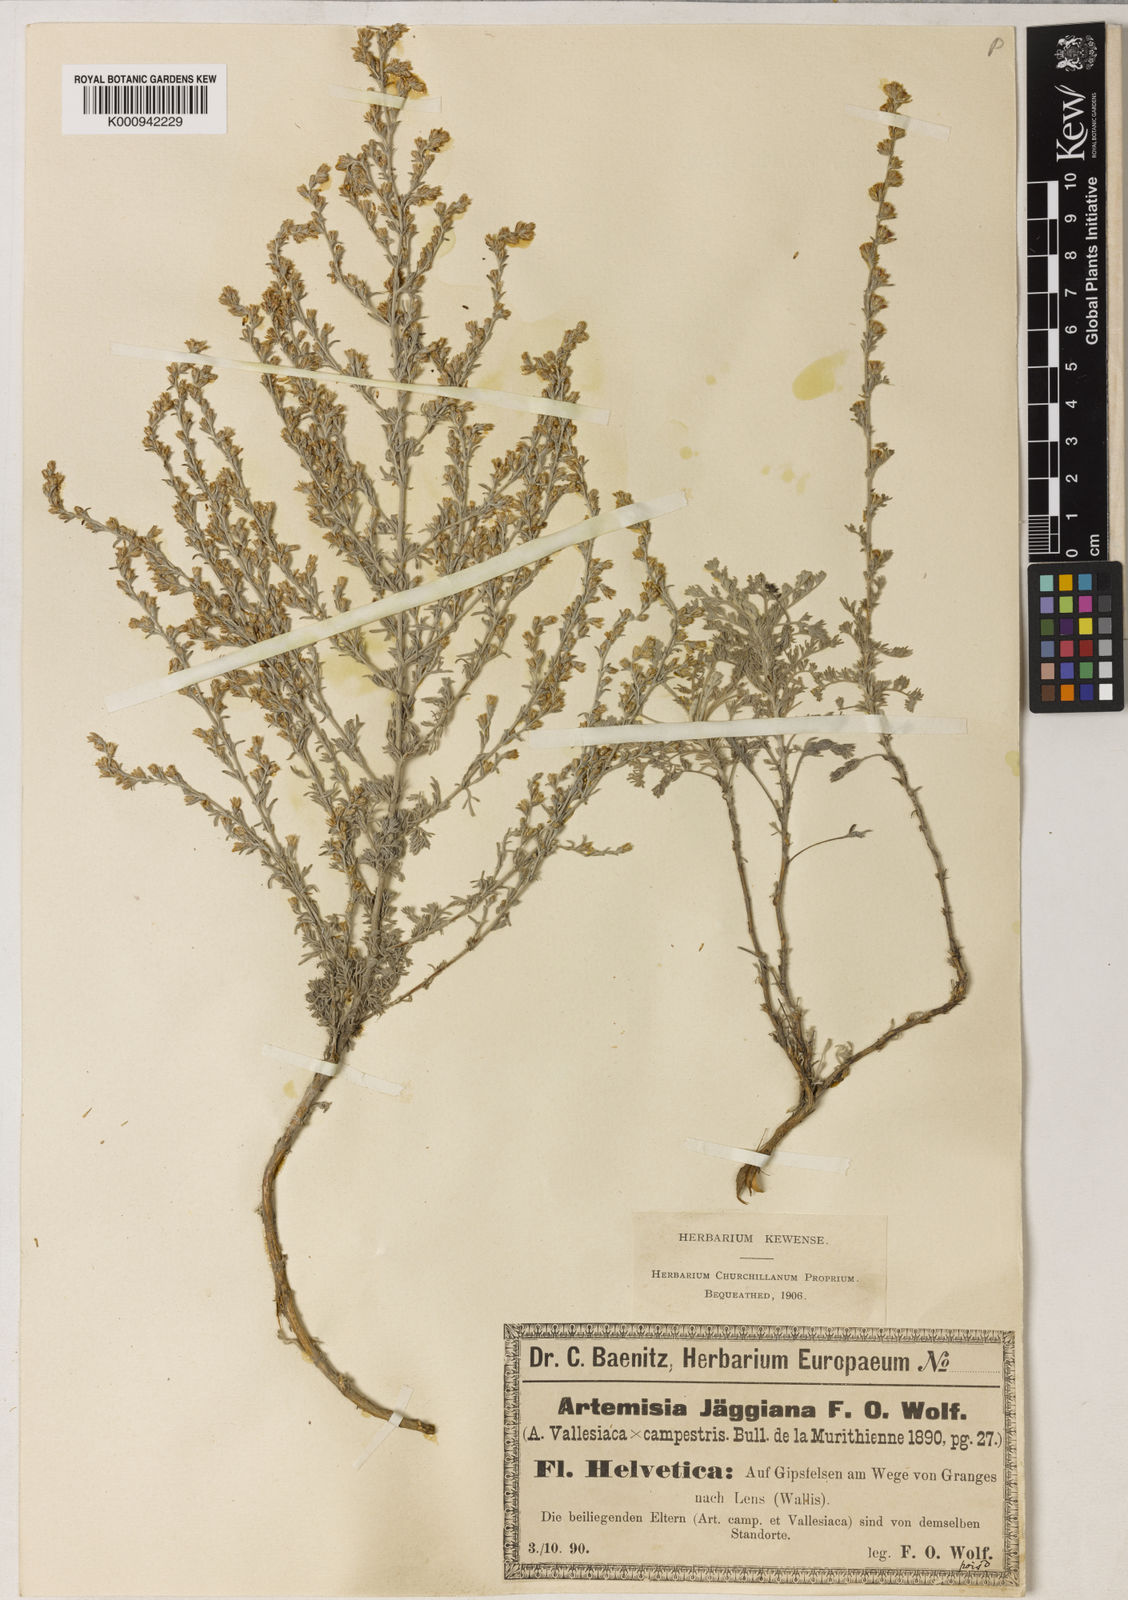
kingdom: Plantae
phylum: Tracheophyta
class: Magnoliopsida
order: Asterales
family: Asteraceae
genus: Artemisia
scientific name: Artemisia vallesiaca
